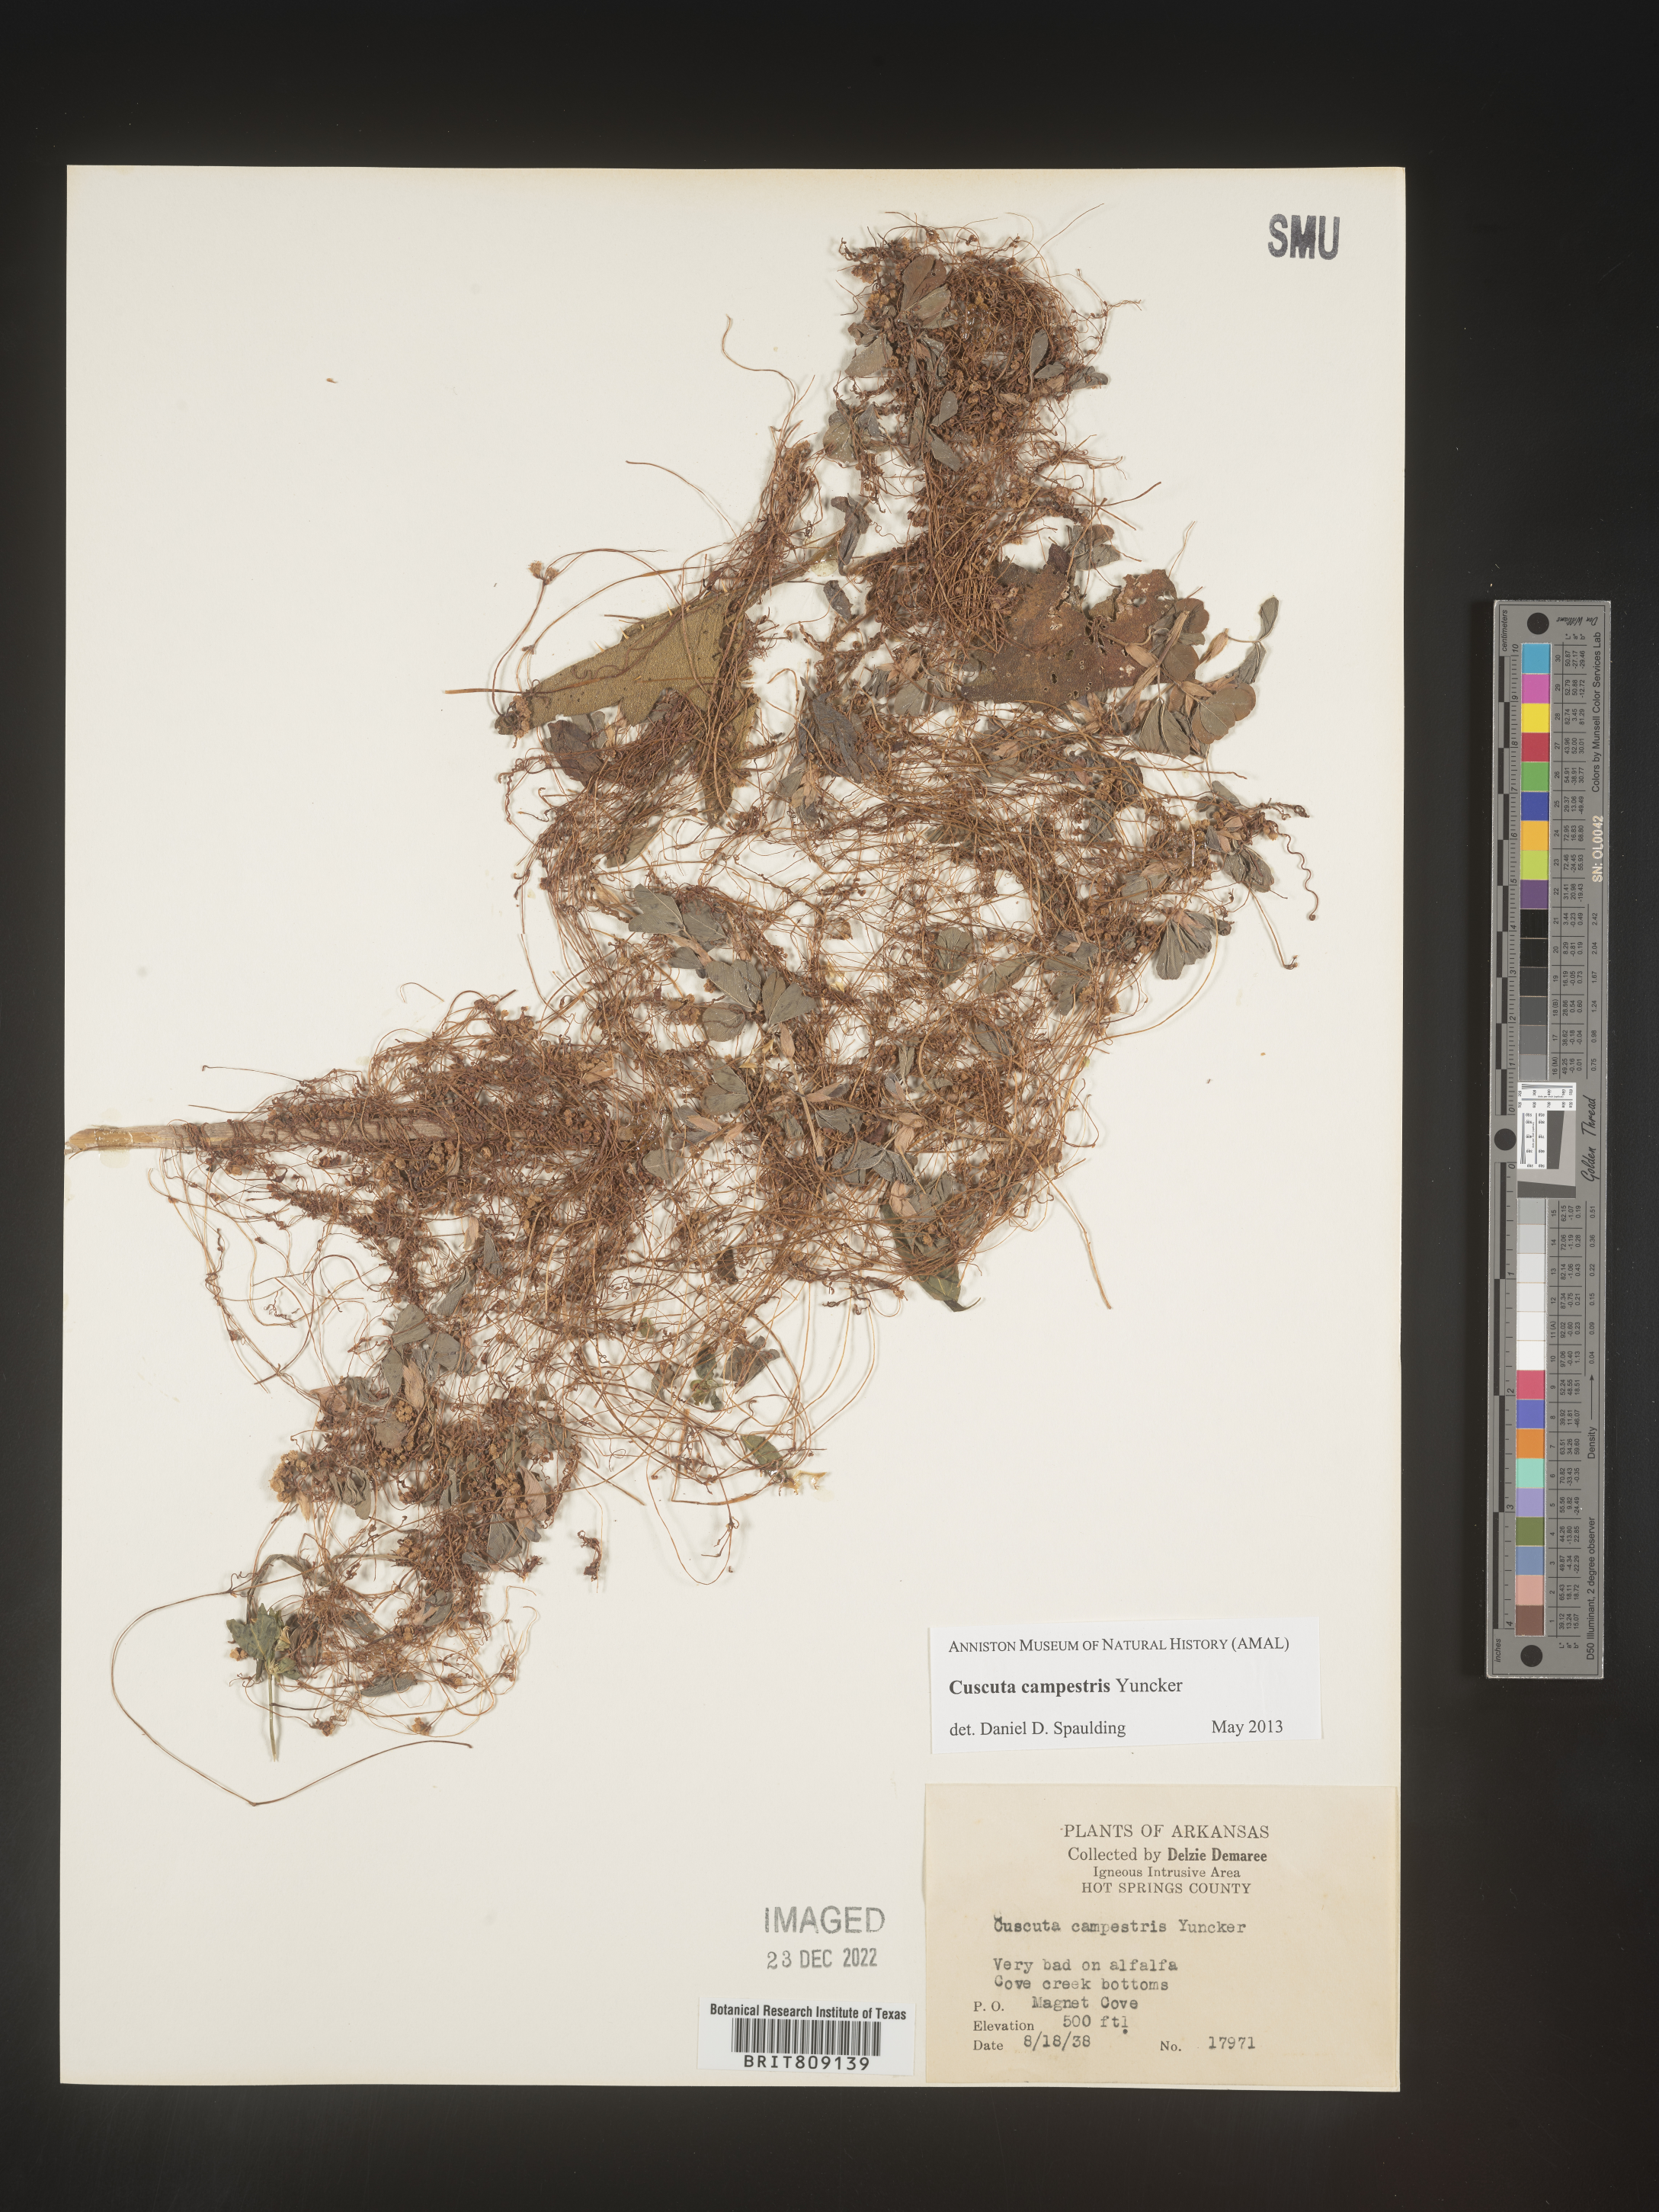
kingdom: Plantae
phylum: Tracheophyta
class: Magnoliopsida
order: Solanales
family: Convolvulaceae
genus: Cuscuta
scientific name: Cuscuta campestris
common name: Yellow dodder
